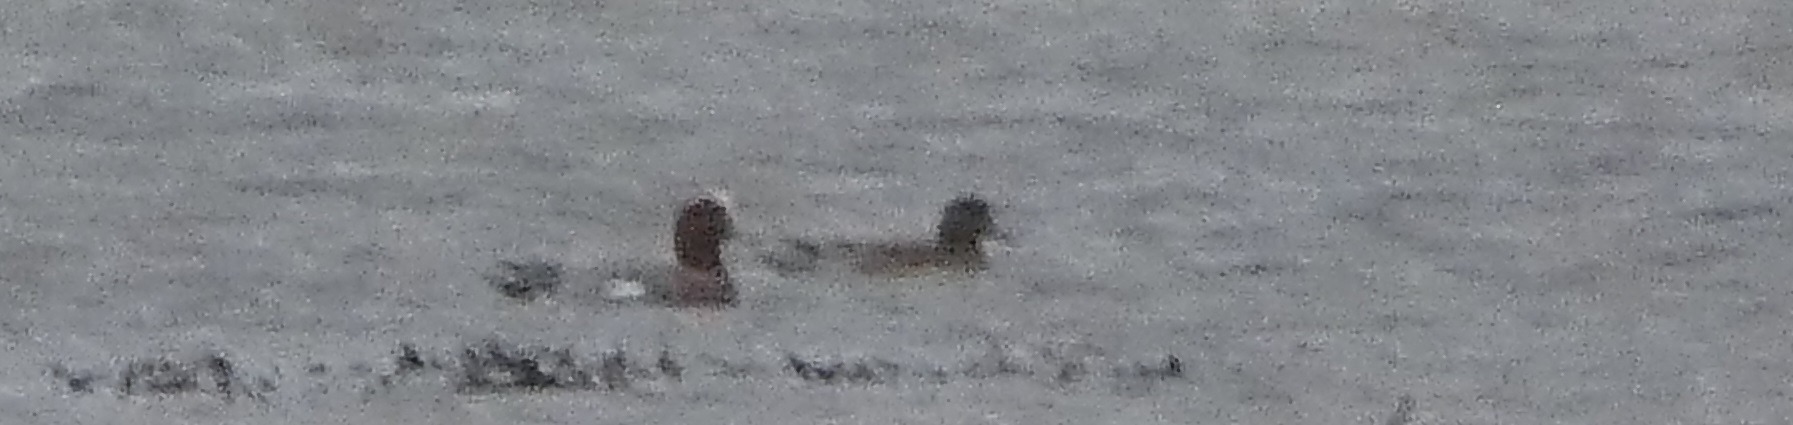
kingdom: Animalia
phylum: Chordata
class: Aves
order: Anseriformes
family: Anatidae
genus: Mareca
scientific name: Mareca penelope
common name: Pibeand
